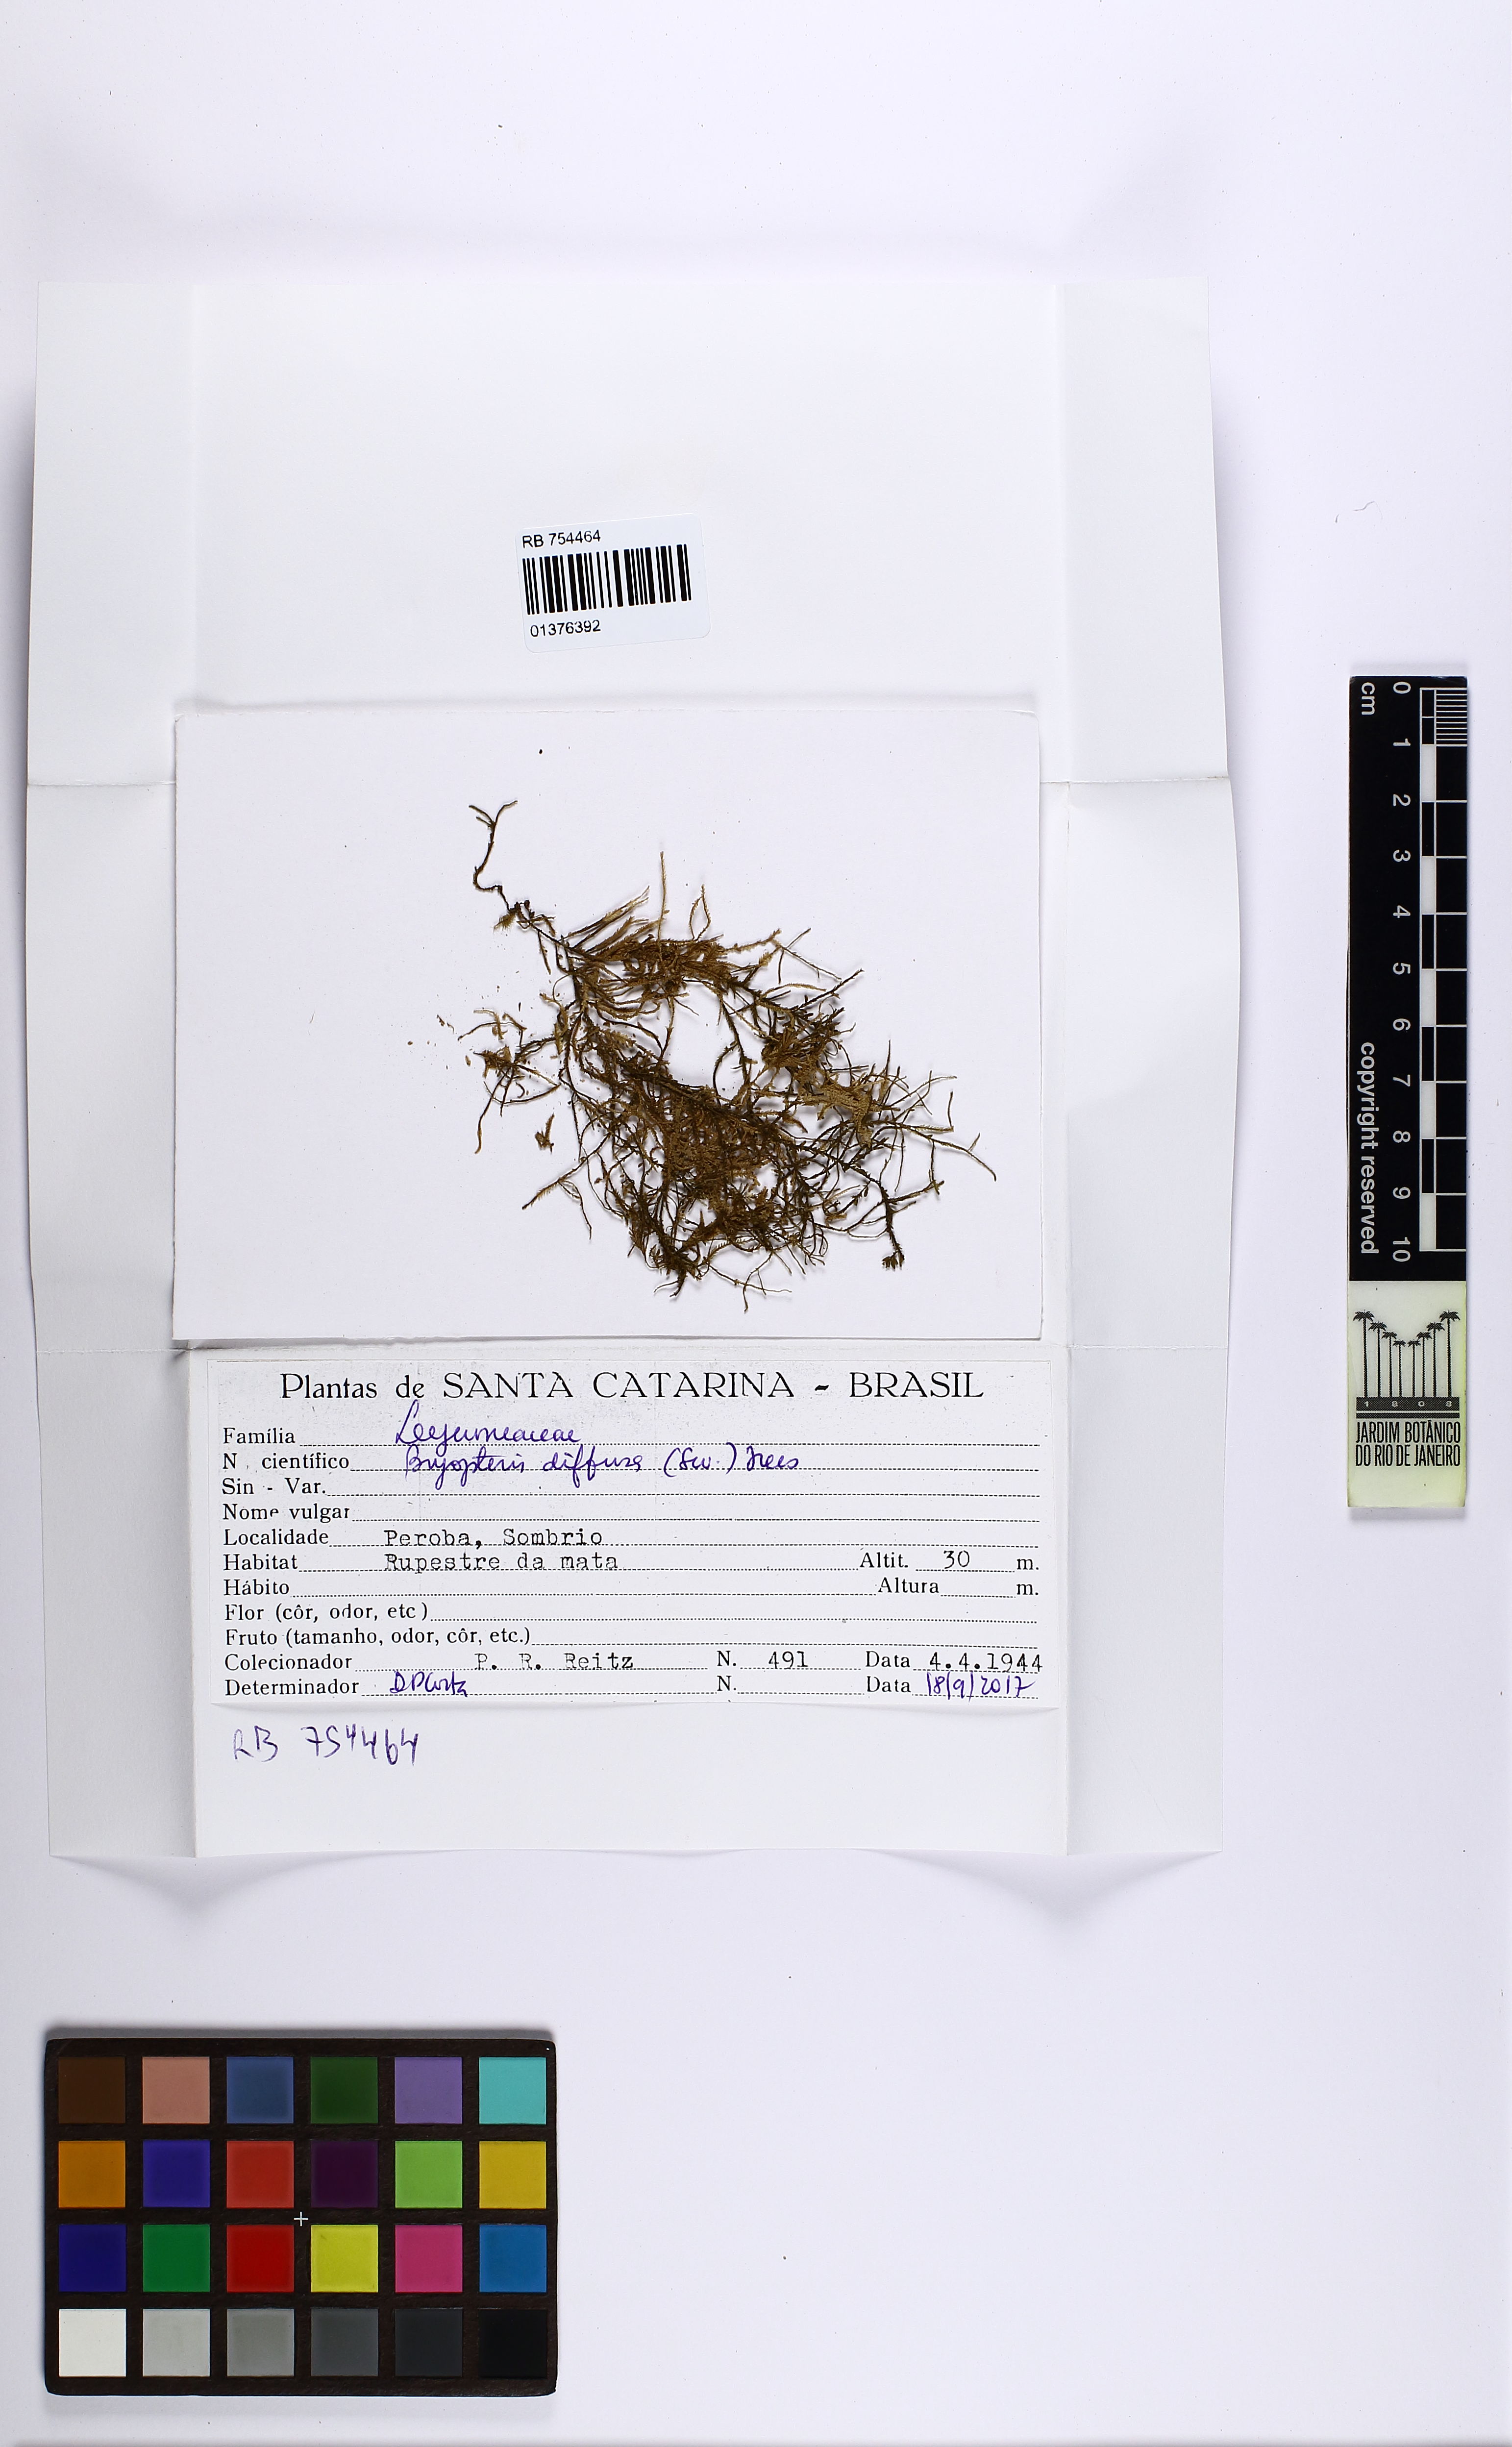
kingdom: Plantae
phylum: Marchantiophyta
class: Jungermanniopsida
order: Porellales
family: Lejeuneaceae
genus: Bryopteris
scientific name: Bryopteris diffusa
